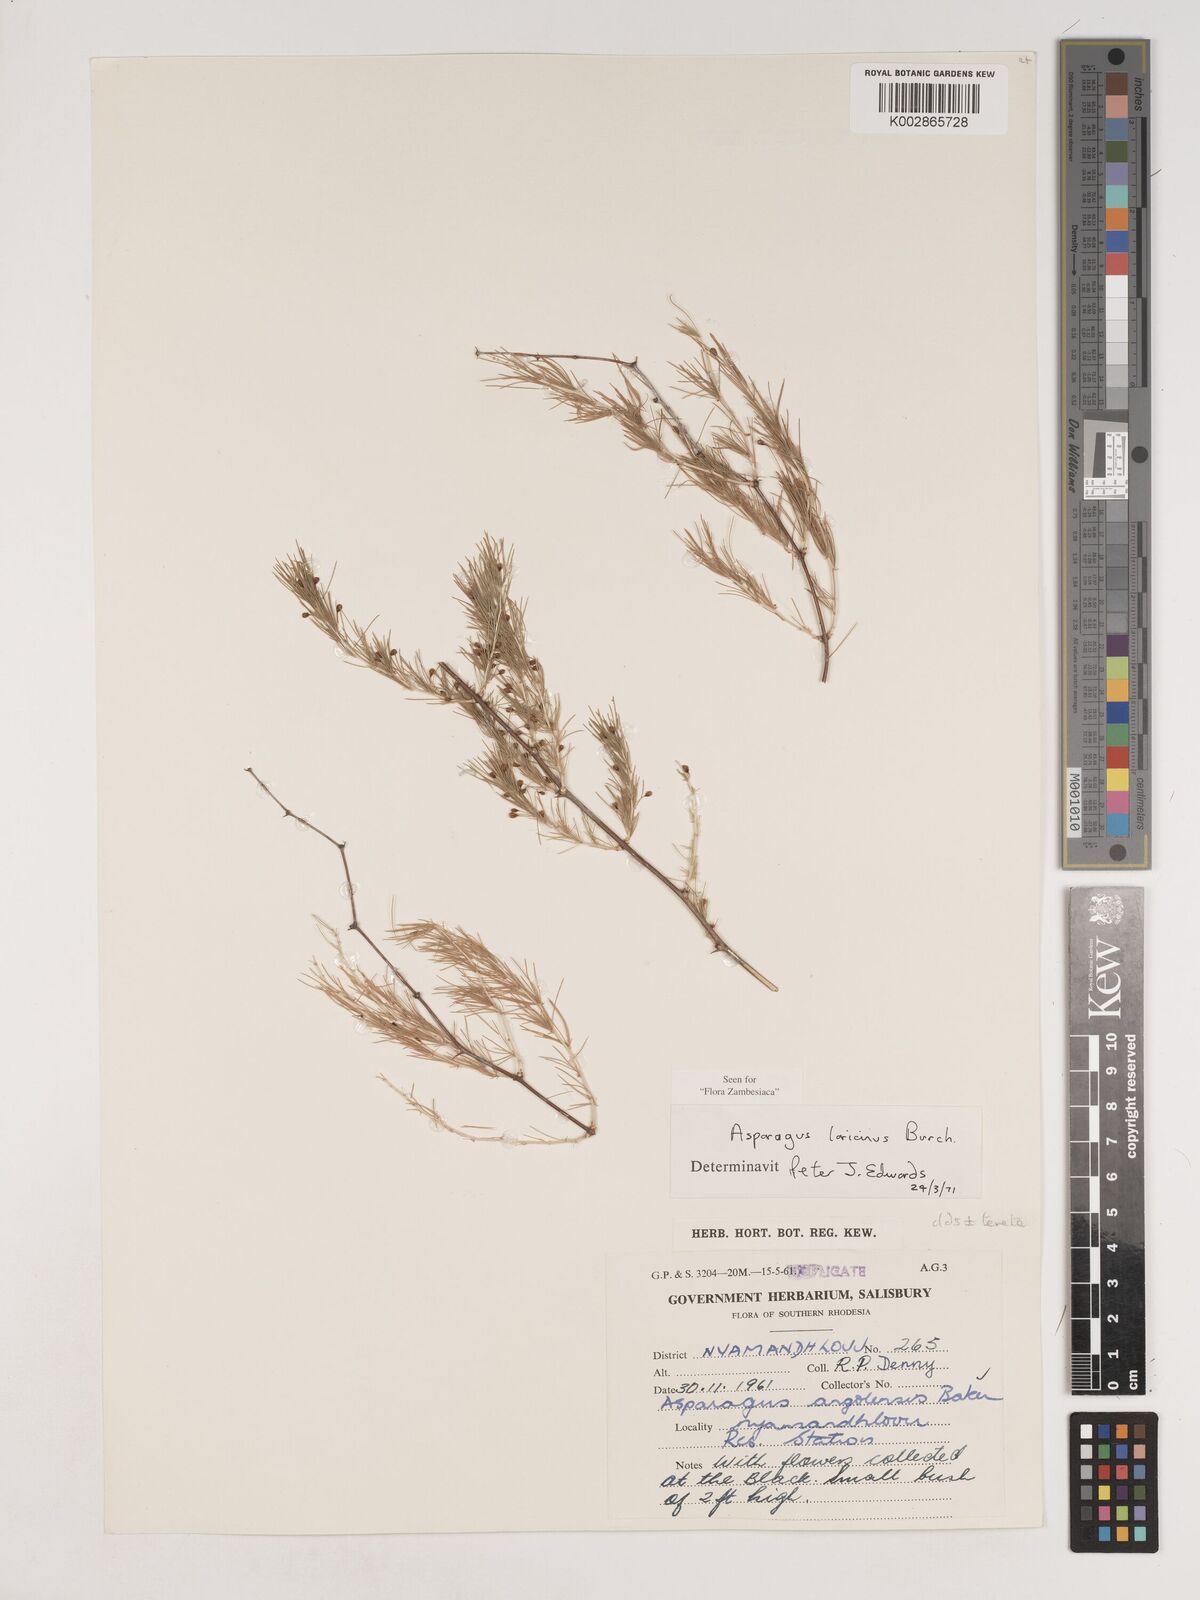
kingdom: Plantae
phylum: Tracheophyta
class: Liliopsida
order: Asparagales
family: Asparagaceae
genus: Asparagus
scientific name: Asparagus laricinus
